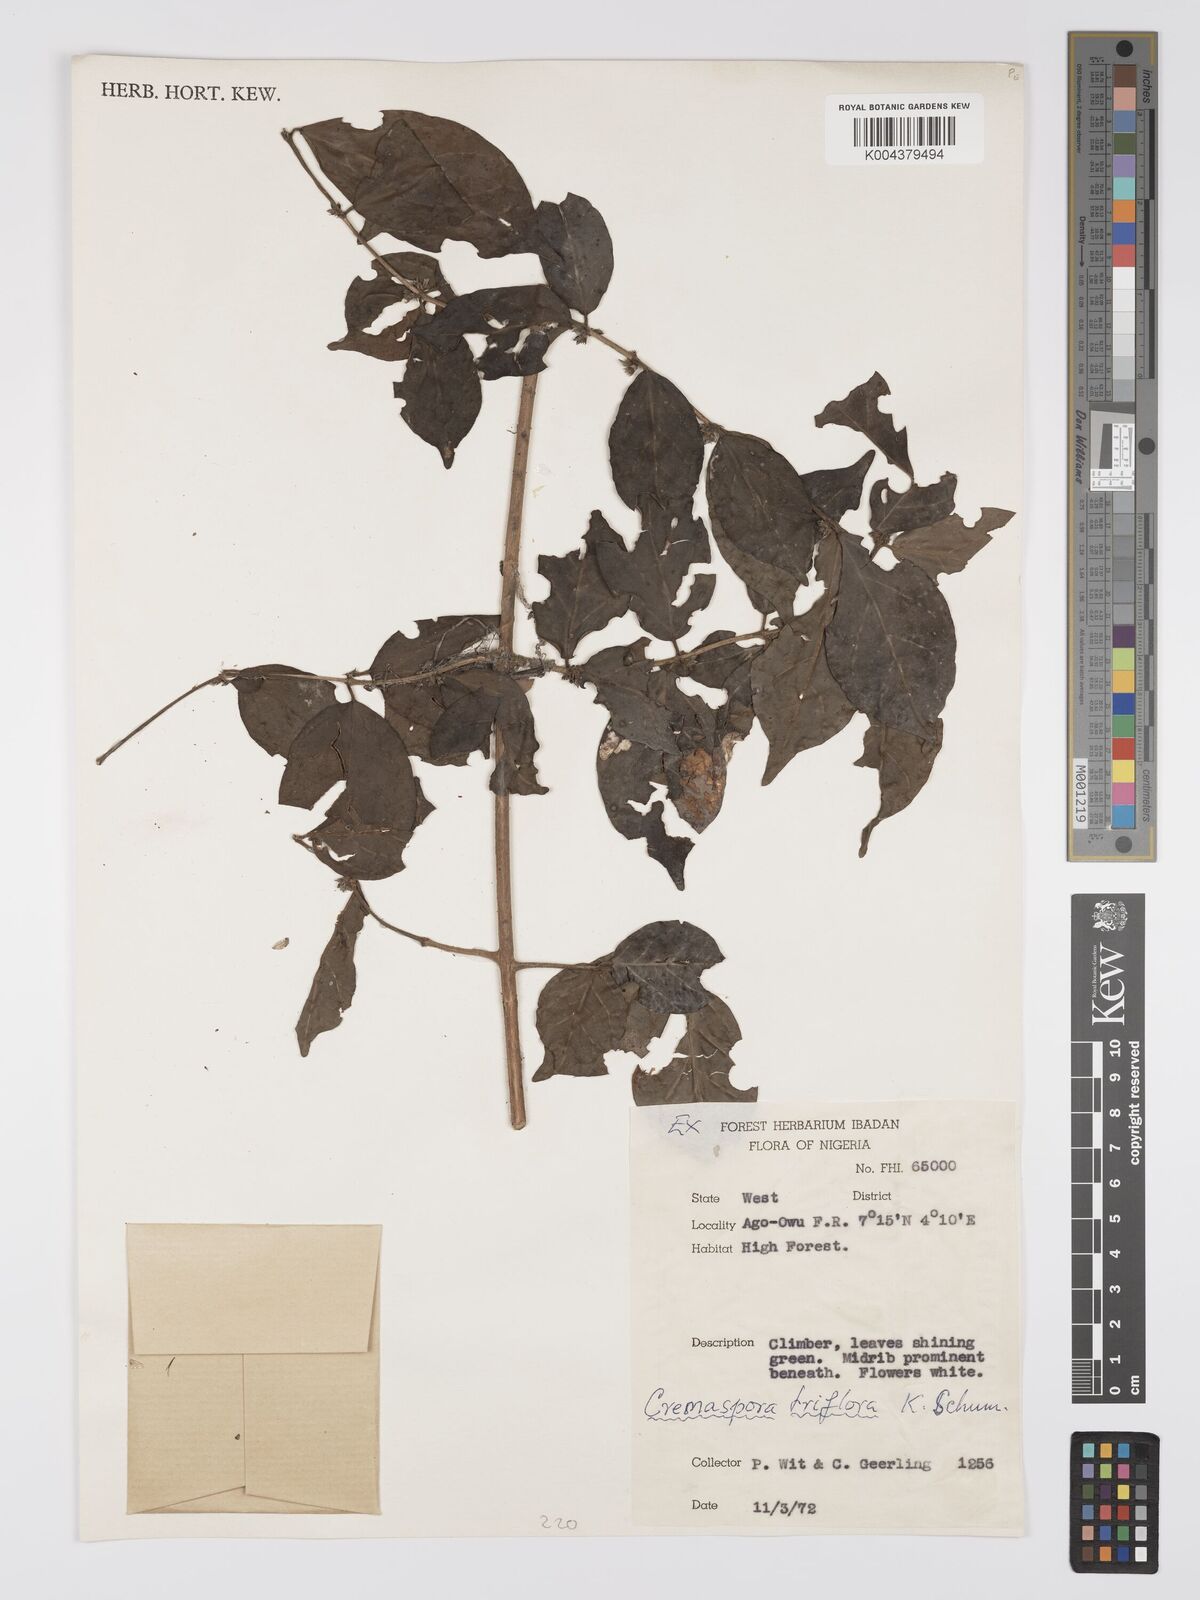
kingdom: Plantae
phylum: Tracheophyta
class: Magnoliopsida
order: Gentianales
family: Rubiaceae
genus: Cremaspora
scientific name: Cremaspora triflora
